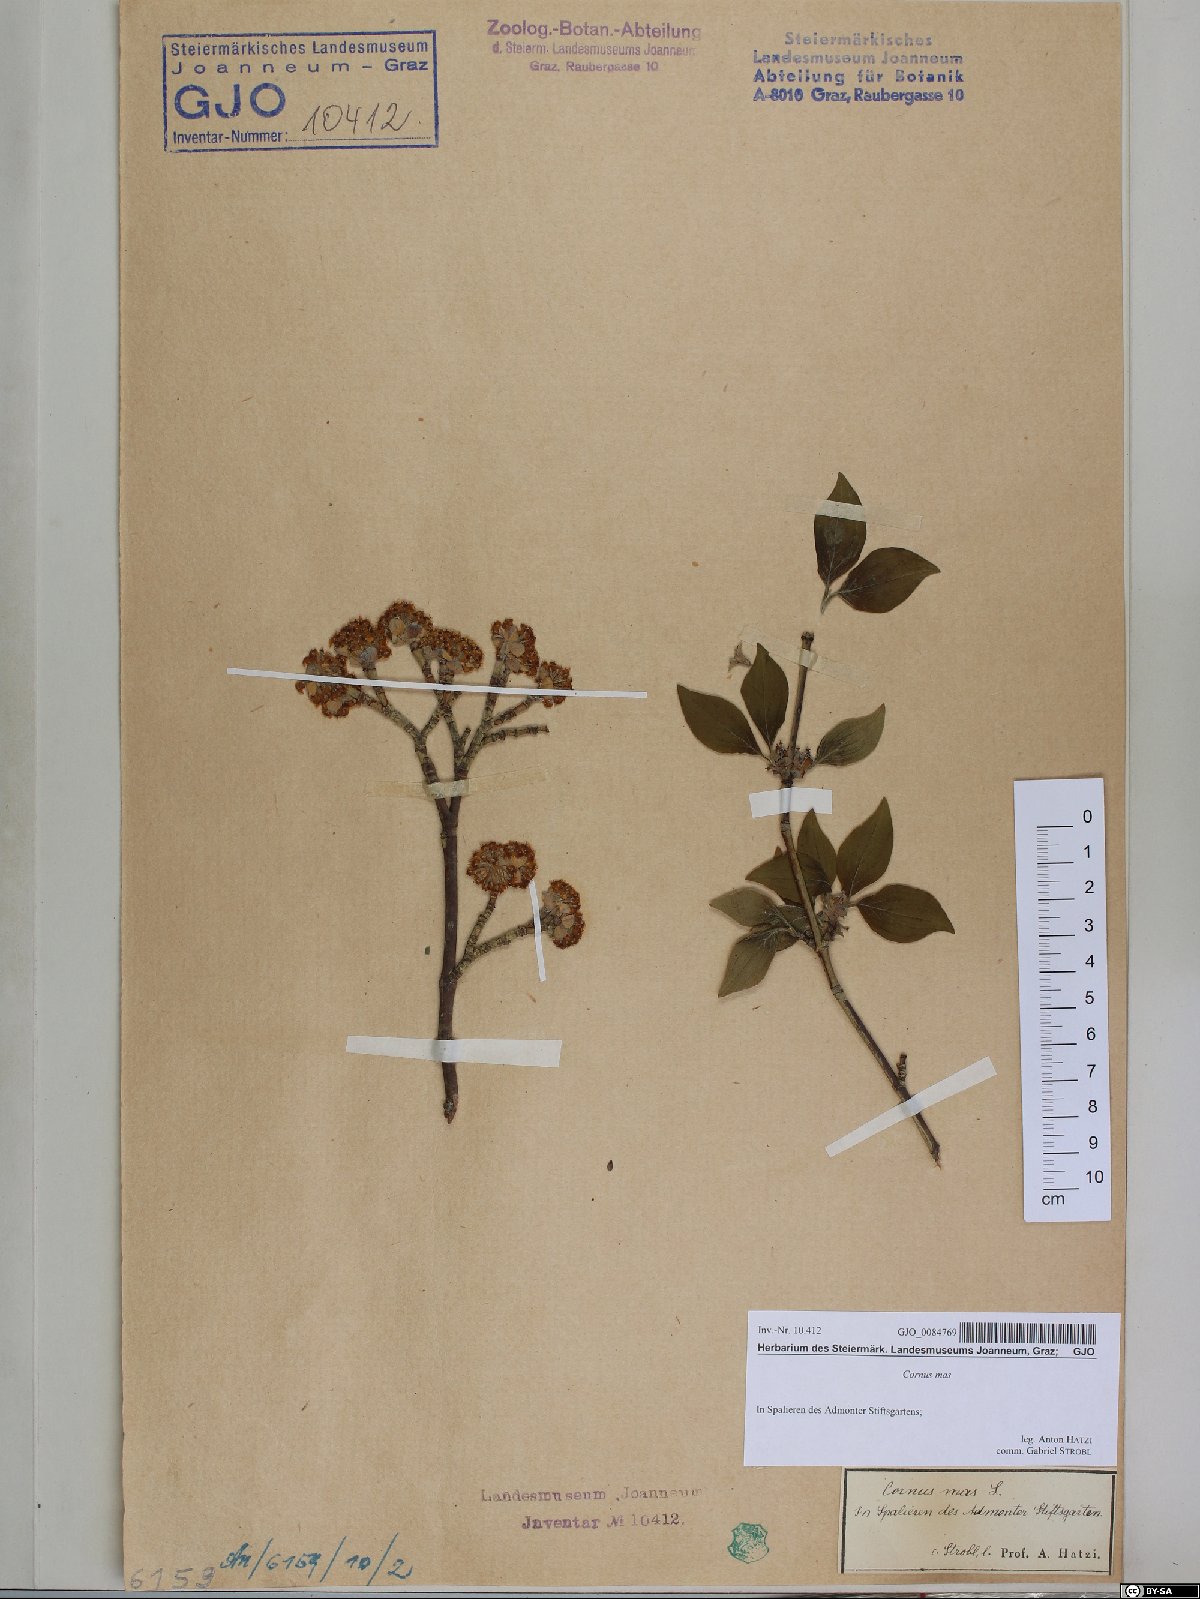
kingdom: Plantae
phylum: Tracheophyta
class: Magnoliopsida
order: Cornales
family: Cornaceae
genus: Cornus
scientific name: Cornus mas
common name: Cornelian-cherry
